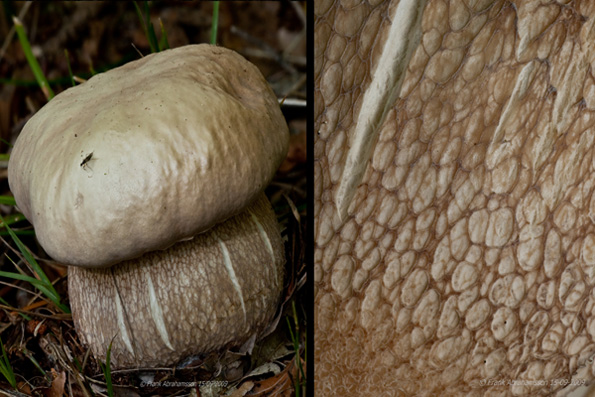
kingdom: Fungi
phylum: Basidiomycota
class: Agaricomycetes
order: Boletales
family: Boletaceae
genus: Boletus
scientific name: Boletus reticulatus
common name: sommer-rørhat
